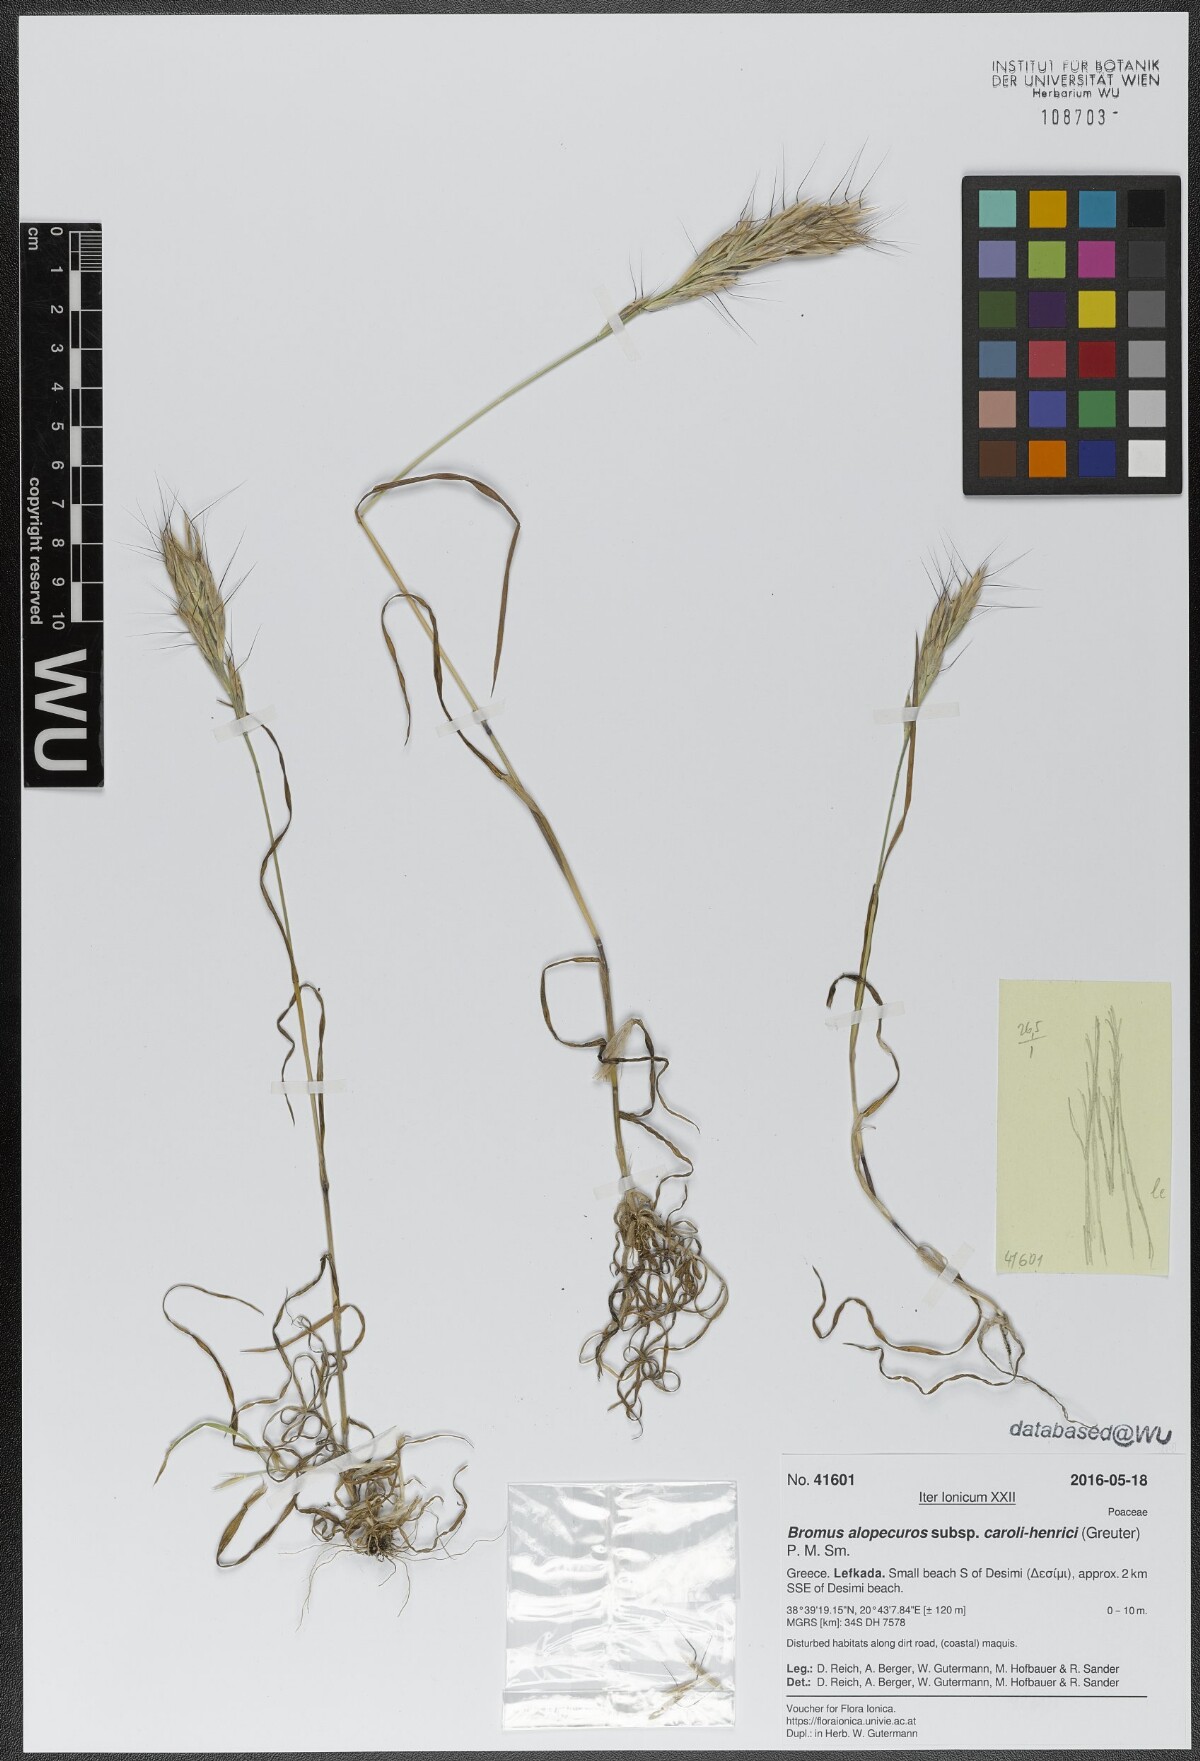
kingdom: Plantae
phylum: Tracheophyta
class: Liliopsida
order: Poales
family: Poaceae
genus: Bromus
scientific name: Bromus alopecuros
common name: Weedy brome
